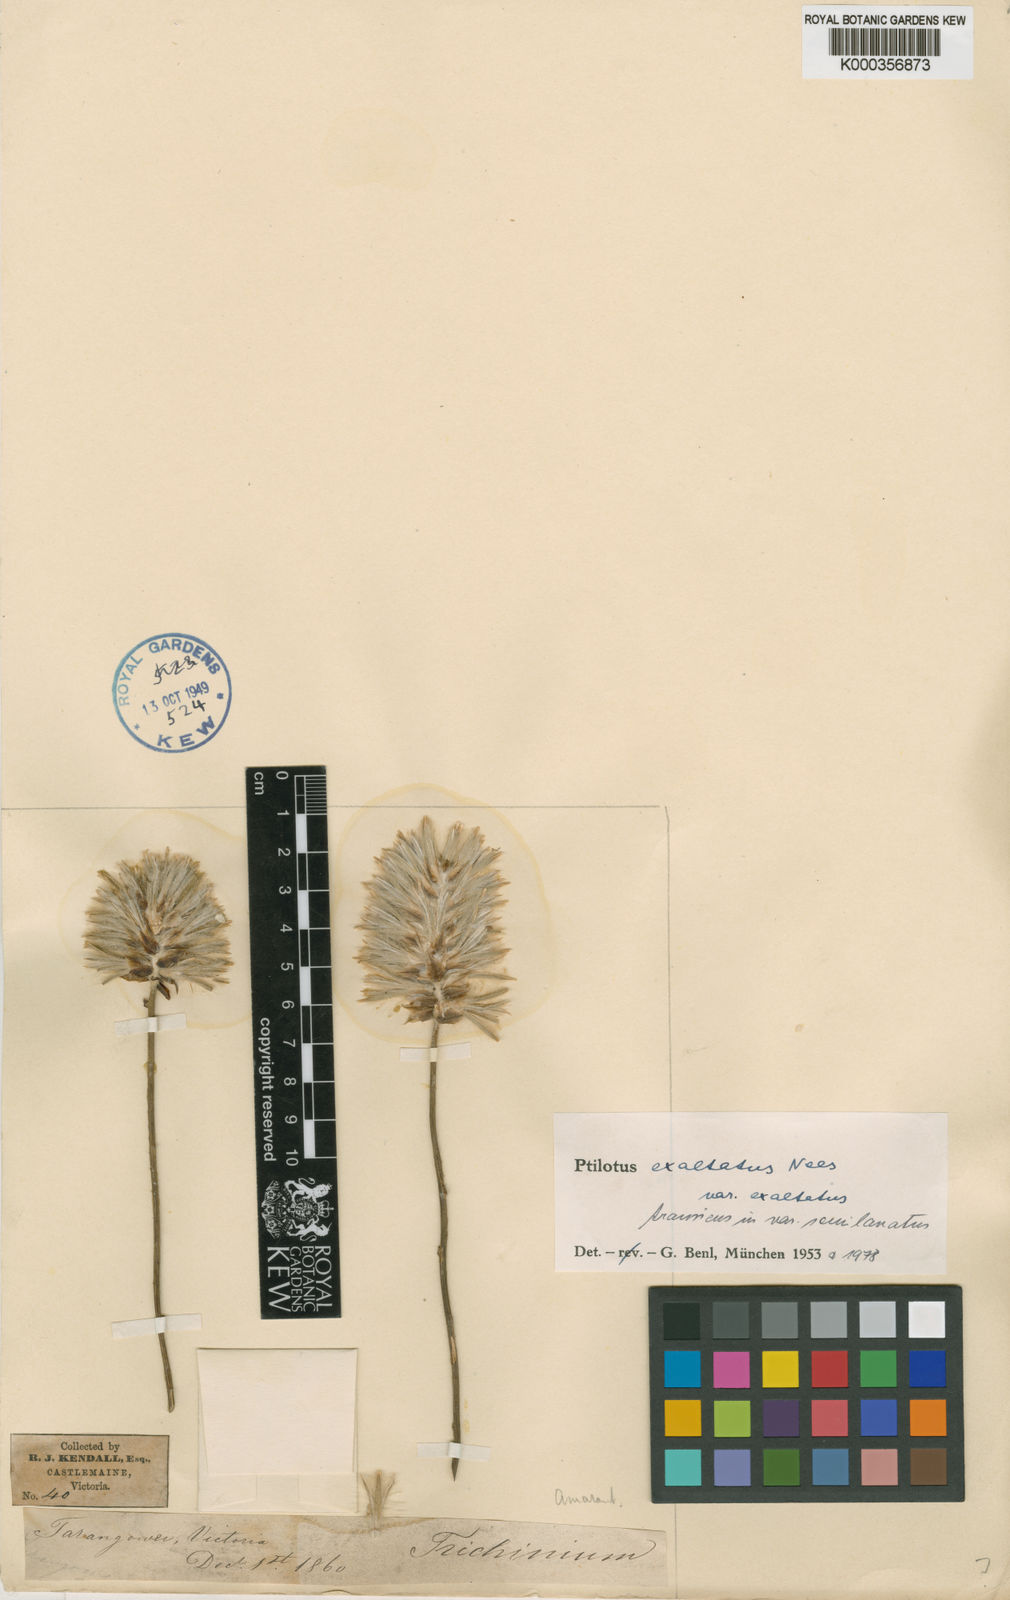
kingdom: Plantae
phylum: Tracheophyta
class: Magnoliopsida
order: Caryophyllales
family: Amaranthaceae
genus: Ptilotus
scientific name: Ptilotus
